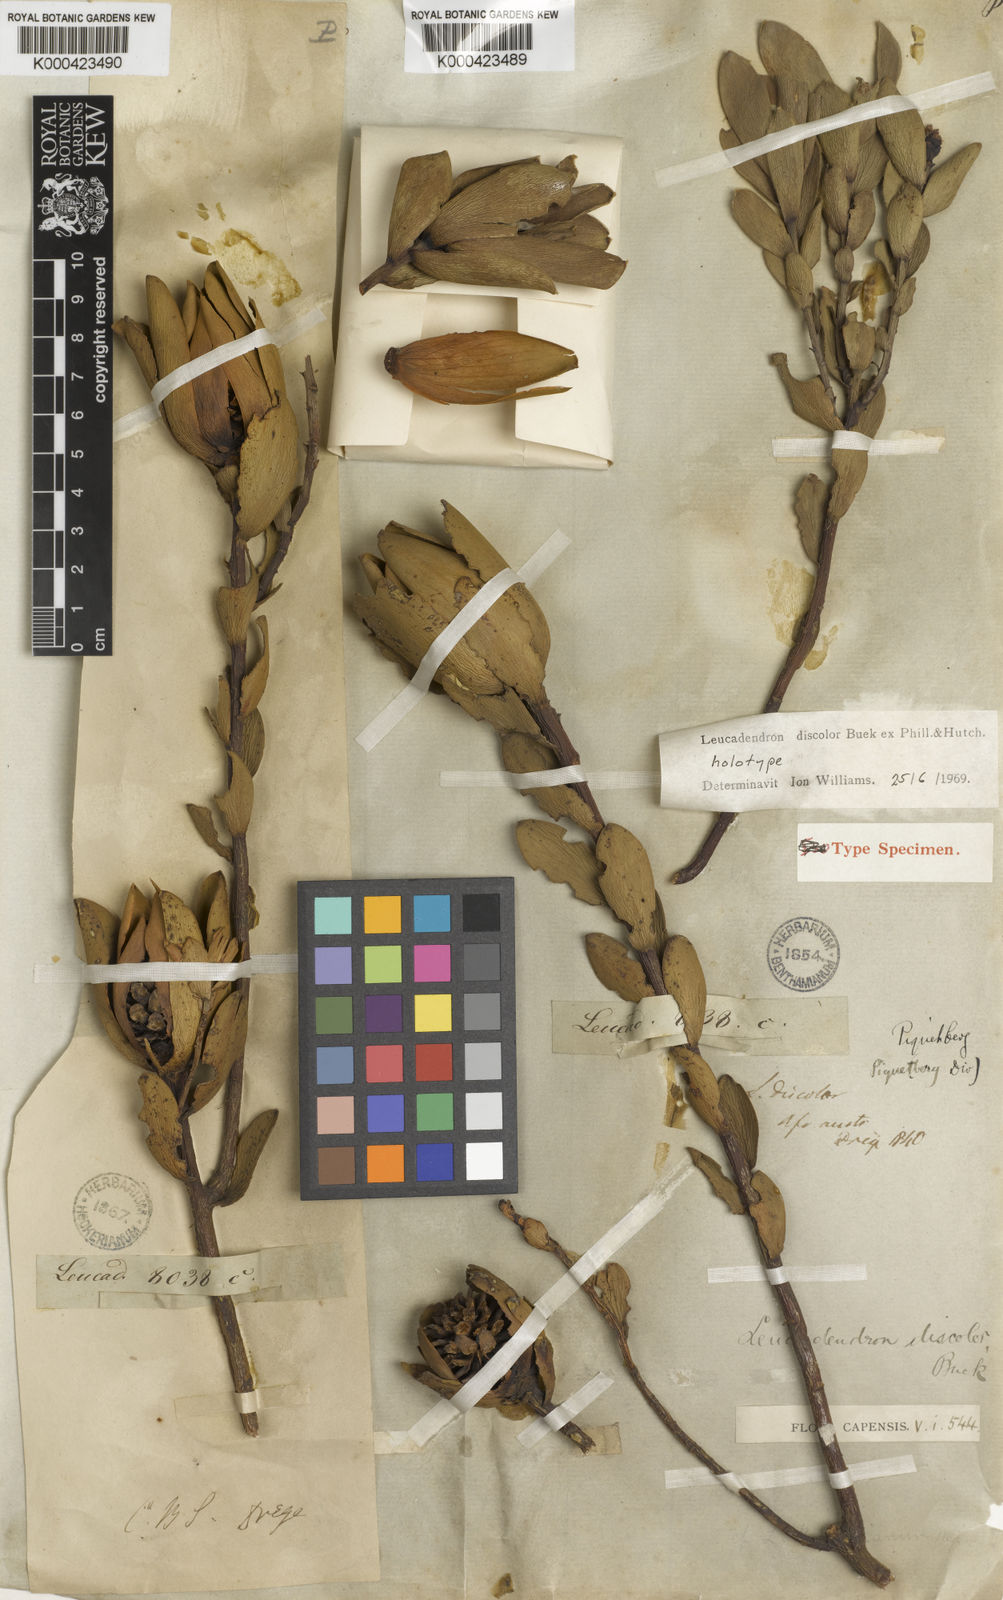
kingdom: Plantae
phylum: Tracheophyta
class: Magnoliopsida
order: Proteales
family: Proteaceae
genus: Leucadendron
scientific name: Leucadendron
